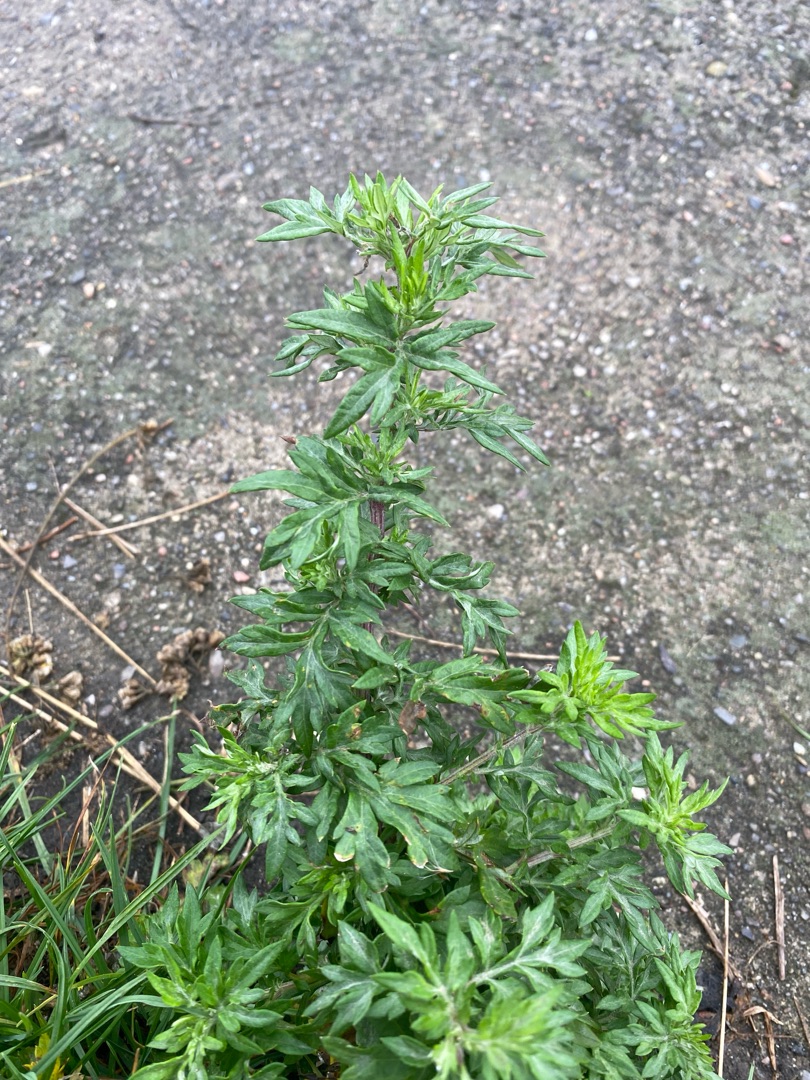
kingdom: Plantae
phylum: Tracheophyta
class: Magnoliopsida
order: Asterales
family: Asteraceae
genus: Artemisia
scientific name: Artemisia vulgaris
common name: Grå-bynke
